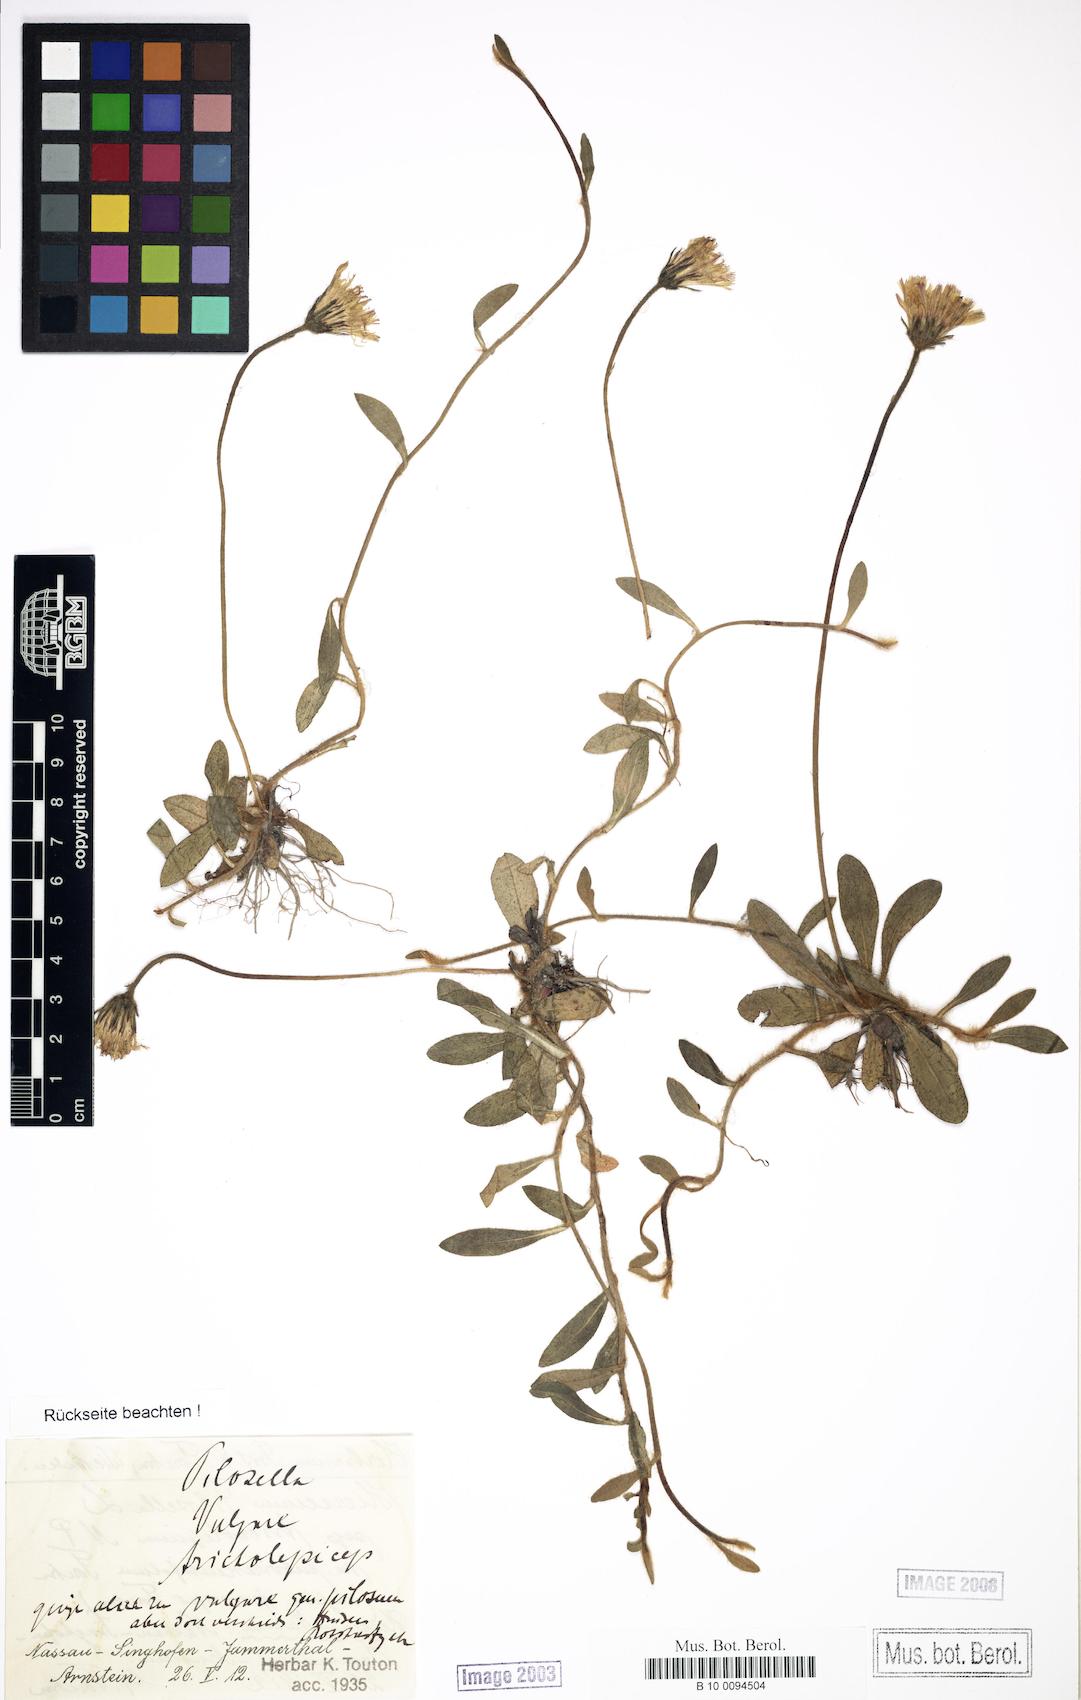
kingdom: Plantae
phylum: Tracheophyta
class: Magnoliopsida
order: Asterales
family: Asteraceae
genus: Pilosella
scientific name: Pilosella officinarum
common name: Mouse-ear hawkweed
